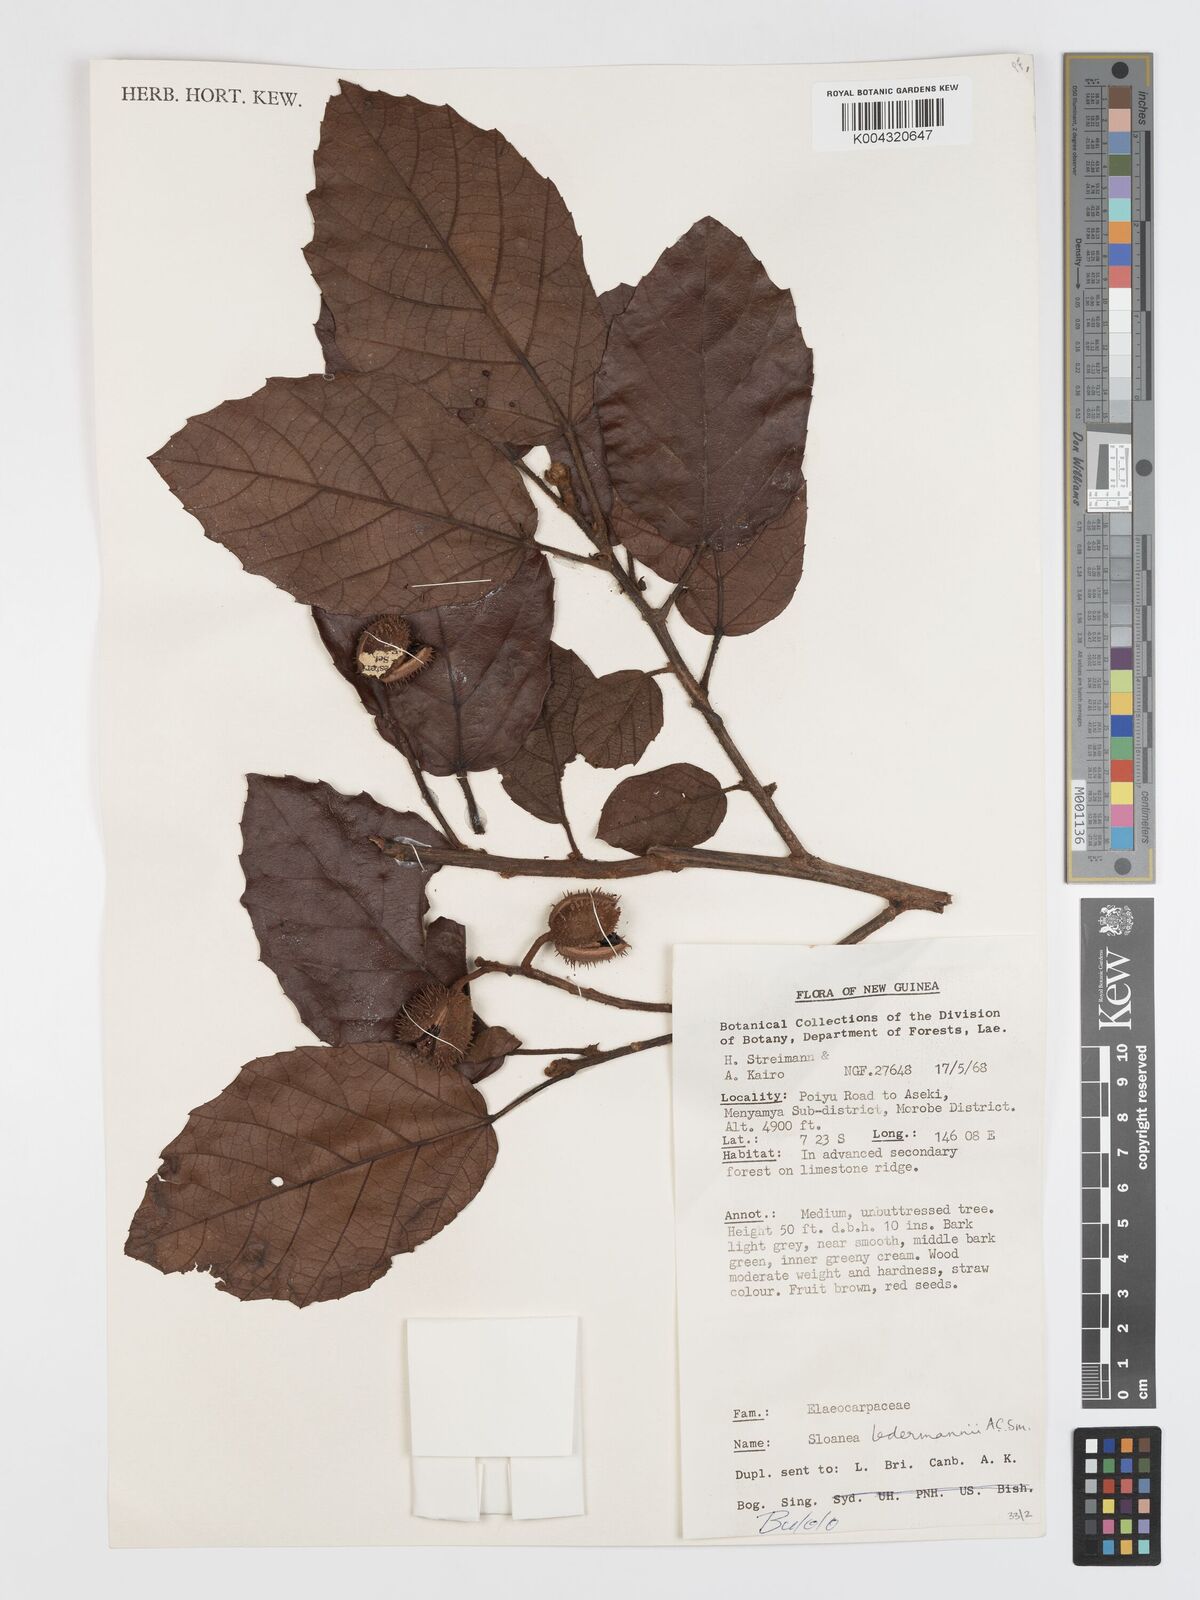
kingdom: Plantae
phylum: Tracheophyta
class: Magnoliopsida
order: Oxalidales
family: Elaeocarpaceae
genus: Sloanea
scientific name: Sloanea ledermannii
